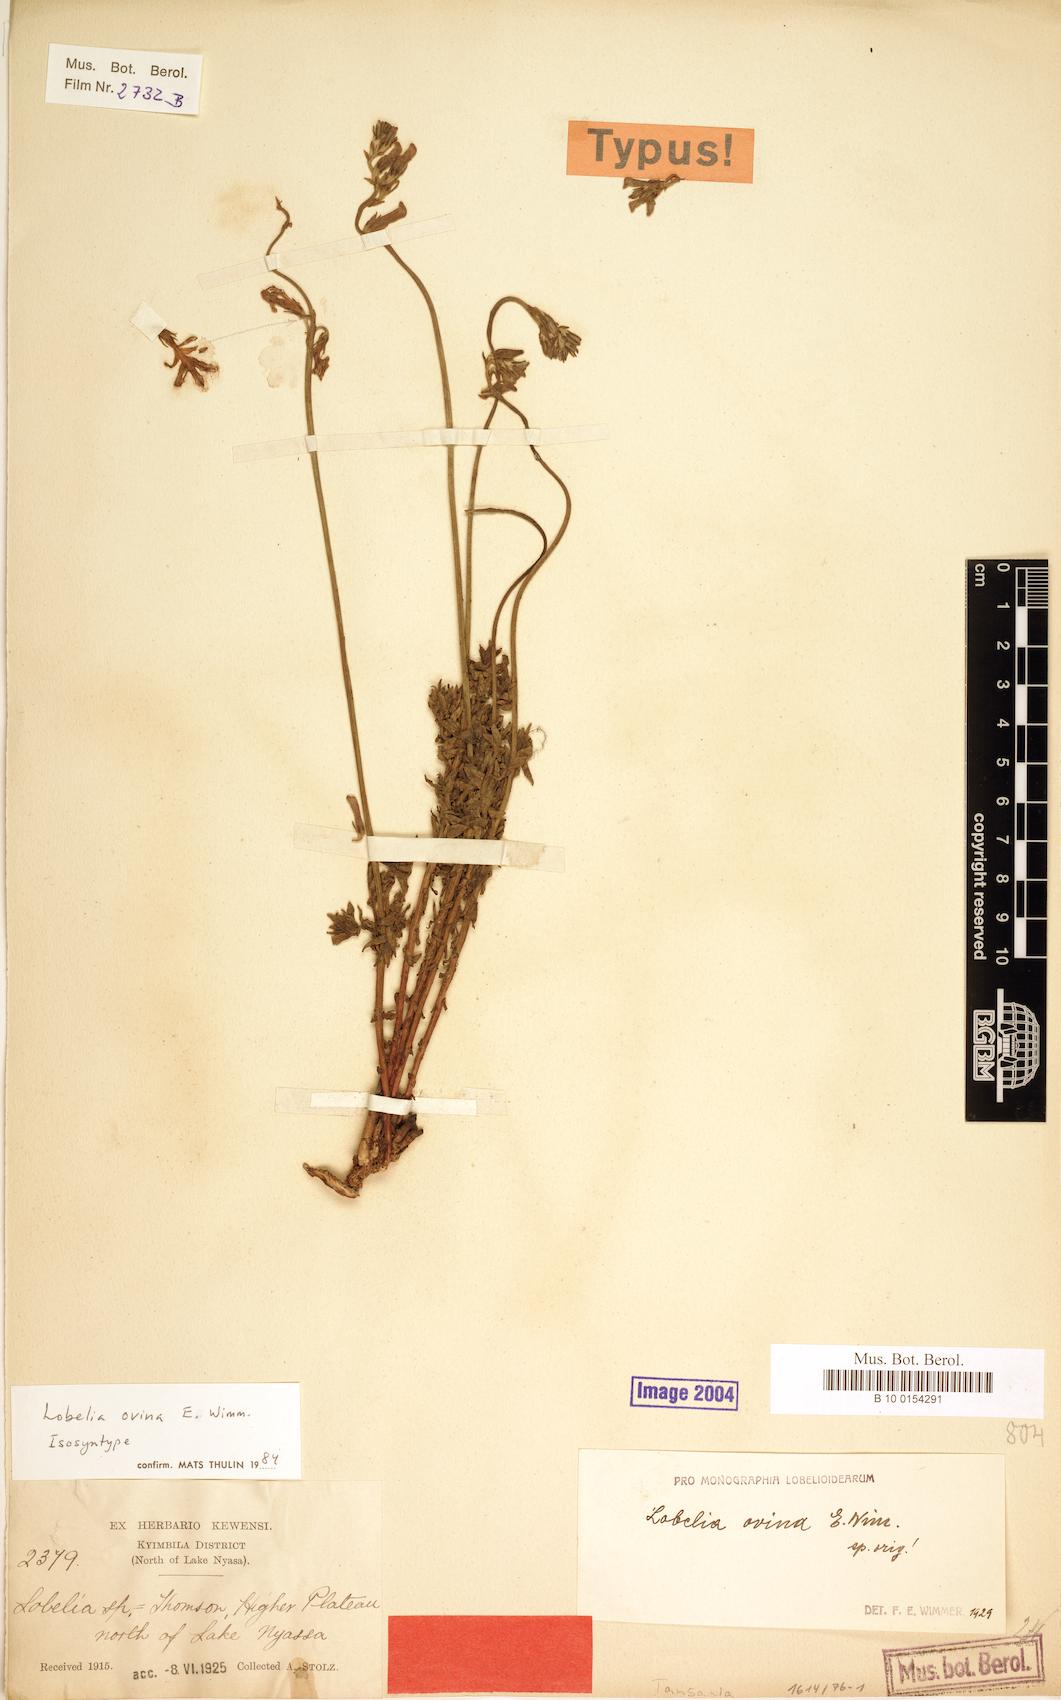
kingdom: Plantae
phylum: Tracheophyta
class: Magnoliopsida
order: Asterales
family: Campanulaceae
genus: Lobelia
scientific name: Lobelia ovina
